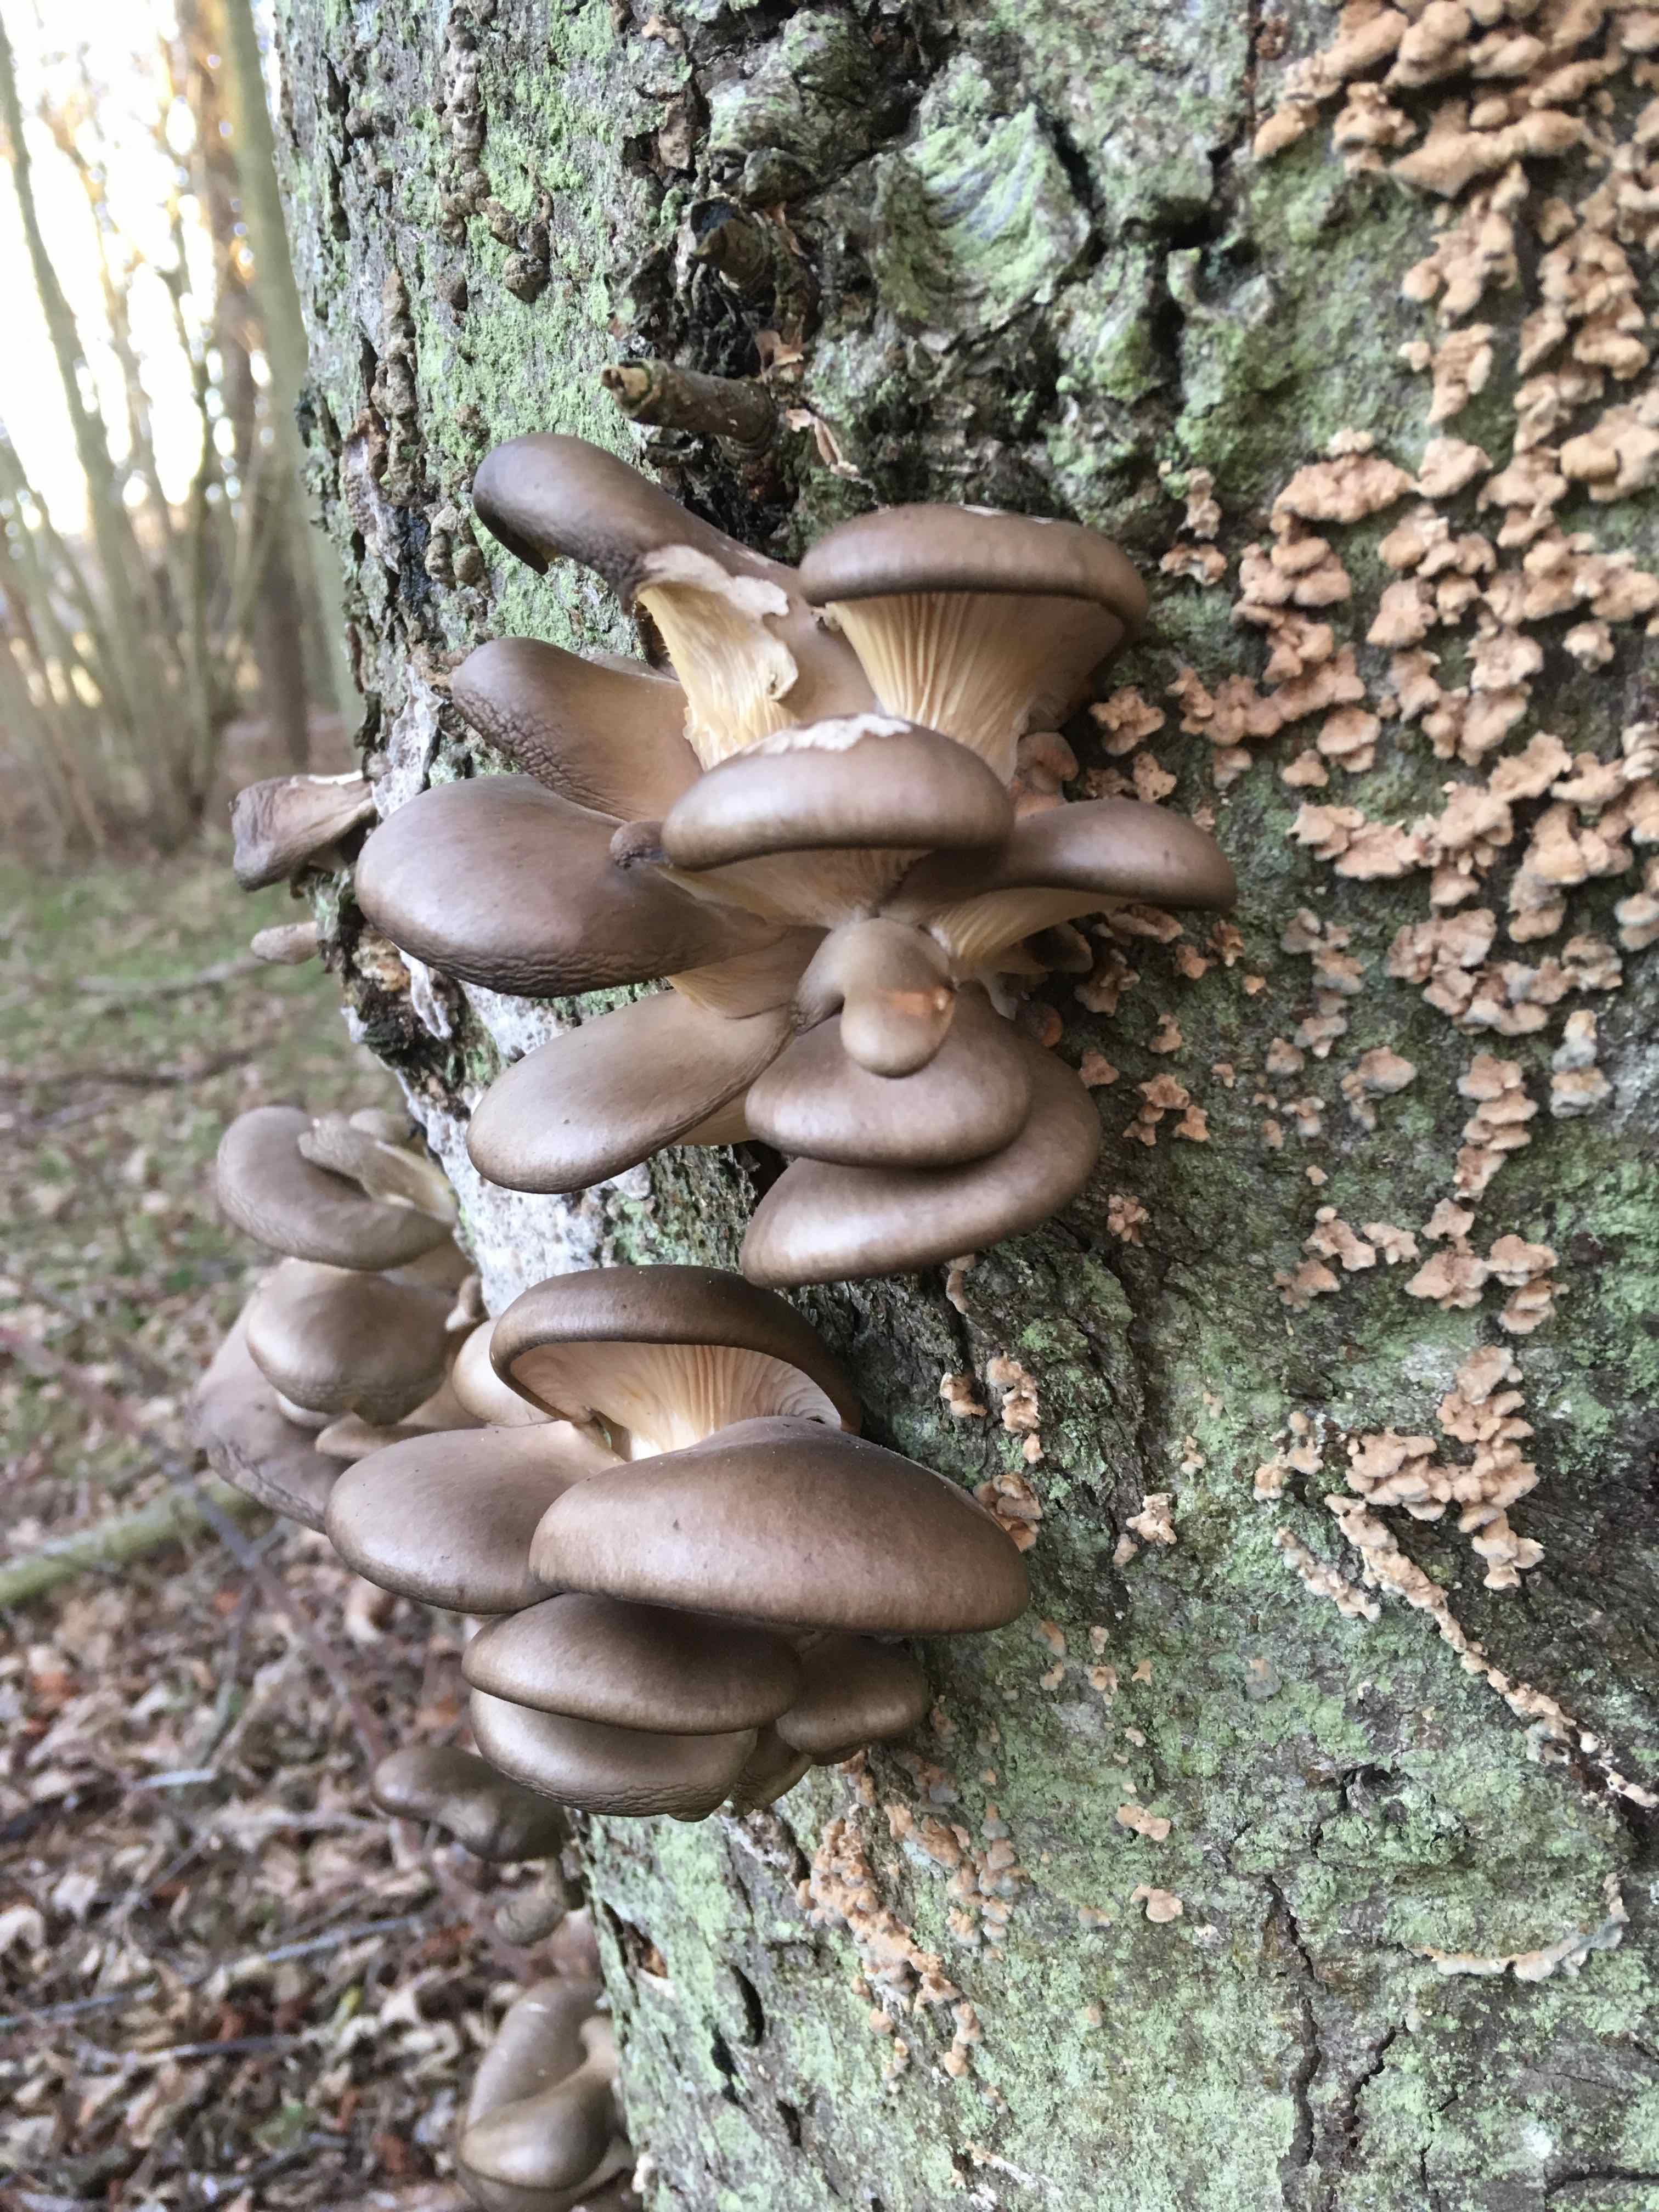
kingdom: Fungi
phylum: Basidiomycota
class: Agaricomycetes
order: Agaricales
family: Pleurotaceae
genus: Pleurotus
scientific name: Pleurotus ostreatus
